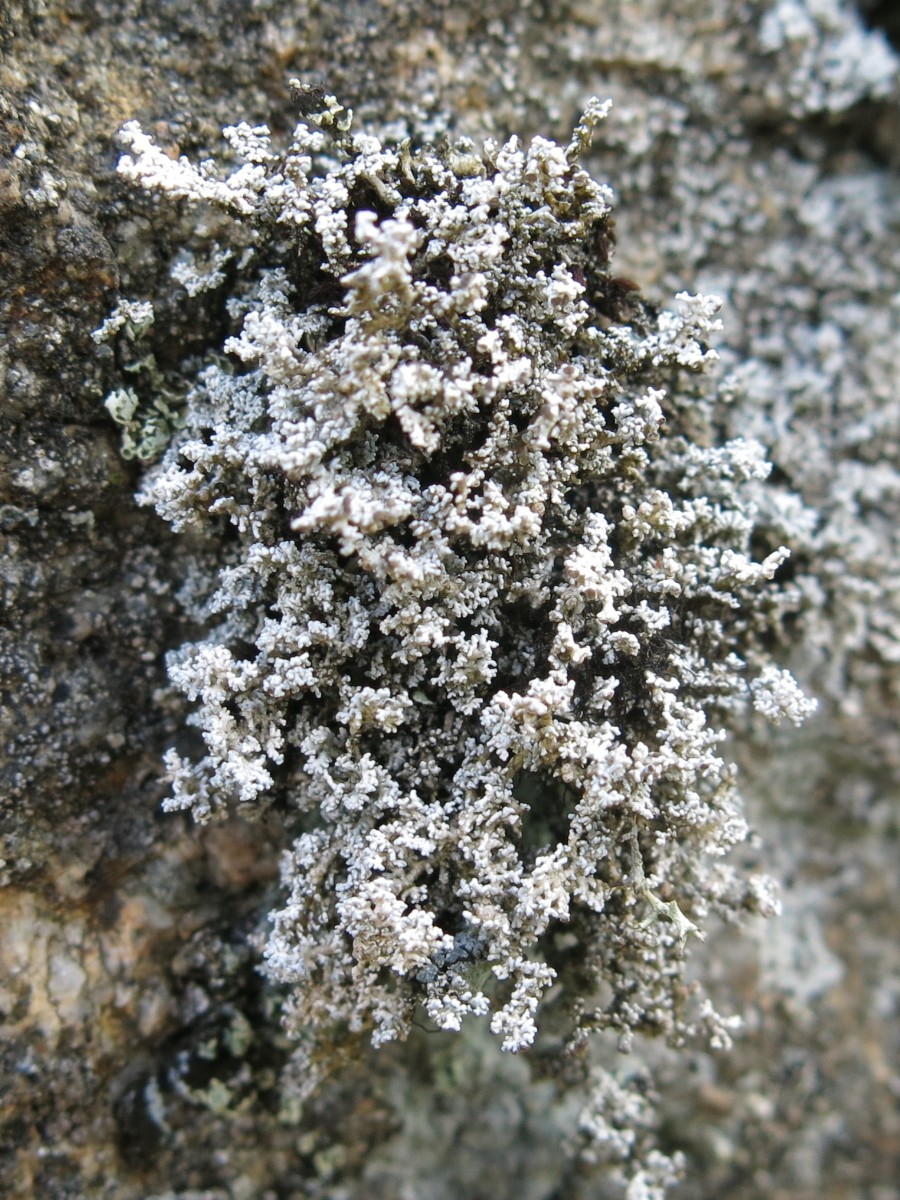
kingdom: Fungi
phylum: Ascomycota
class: Lecanoromycetes
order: Lecanorales
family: Stereocaulaceae
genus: Stereocaulon
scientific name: Stereocaulon dactylophyllum
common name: finger-korallav
